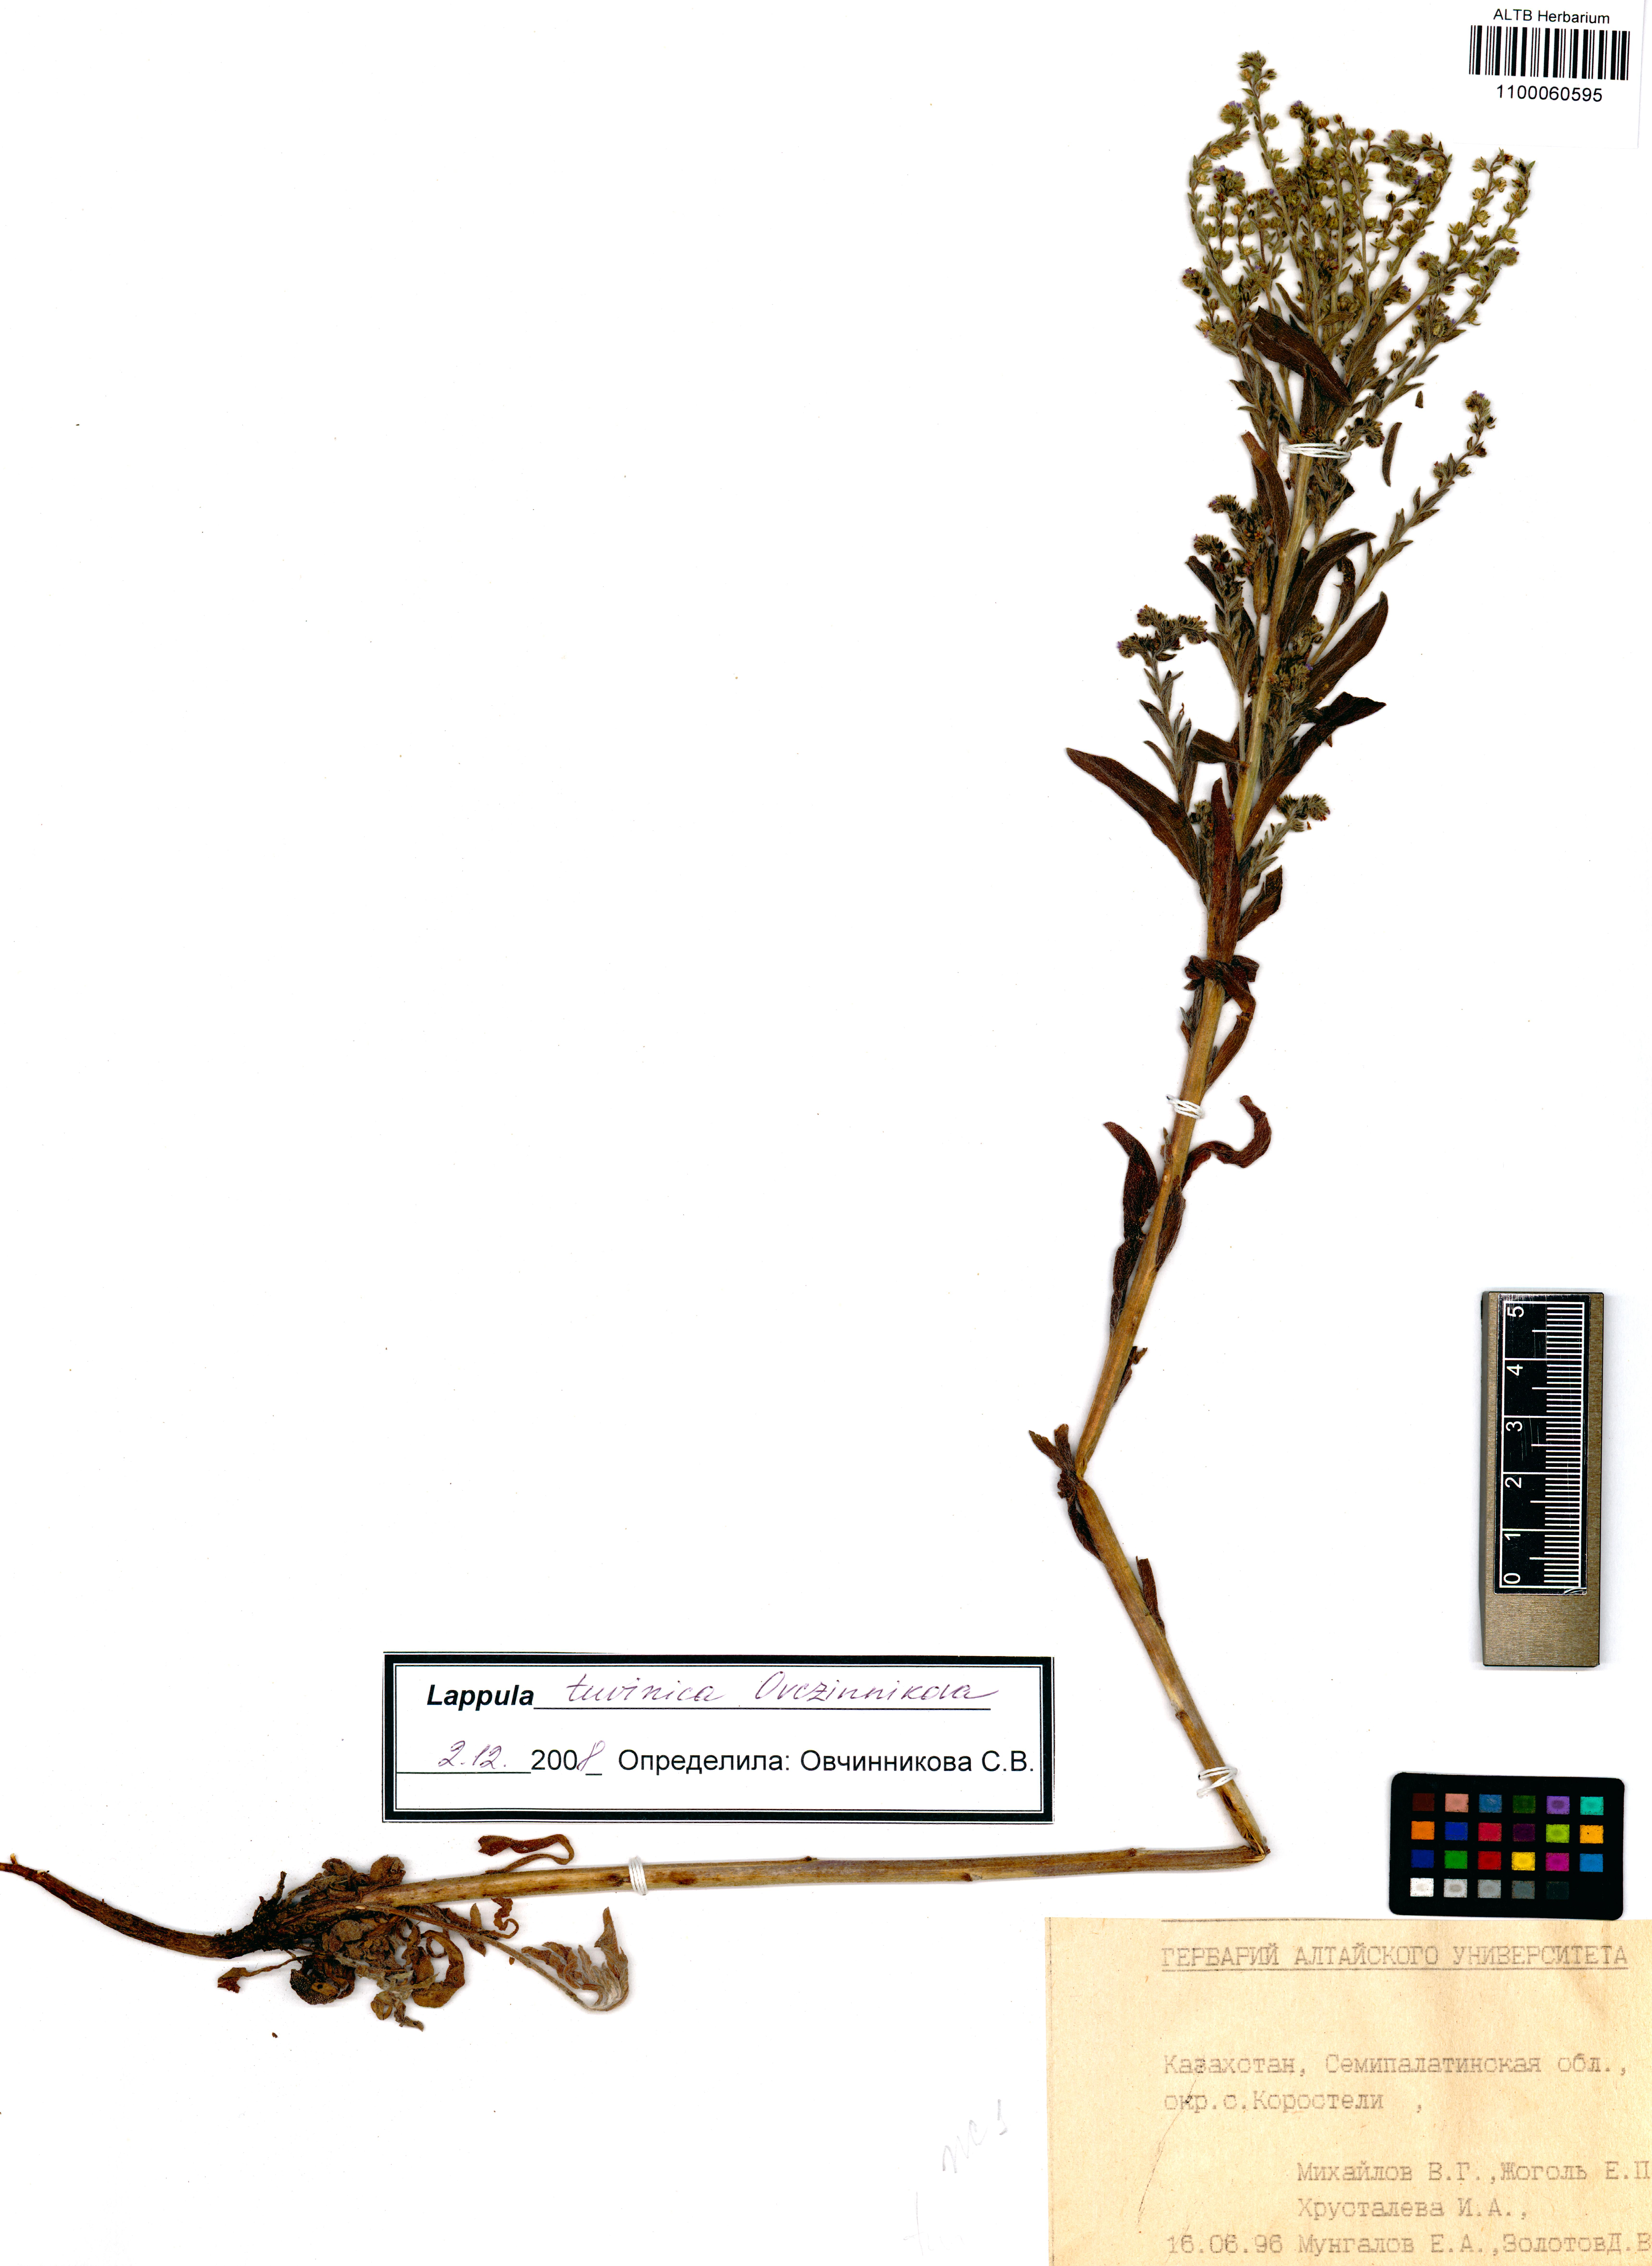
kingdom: Plantae
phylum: Tracheophyta
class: Magnoliopsida
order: Boraginales
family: Boraginaceae
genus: Lappula
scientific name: Lappula tuvinica
